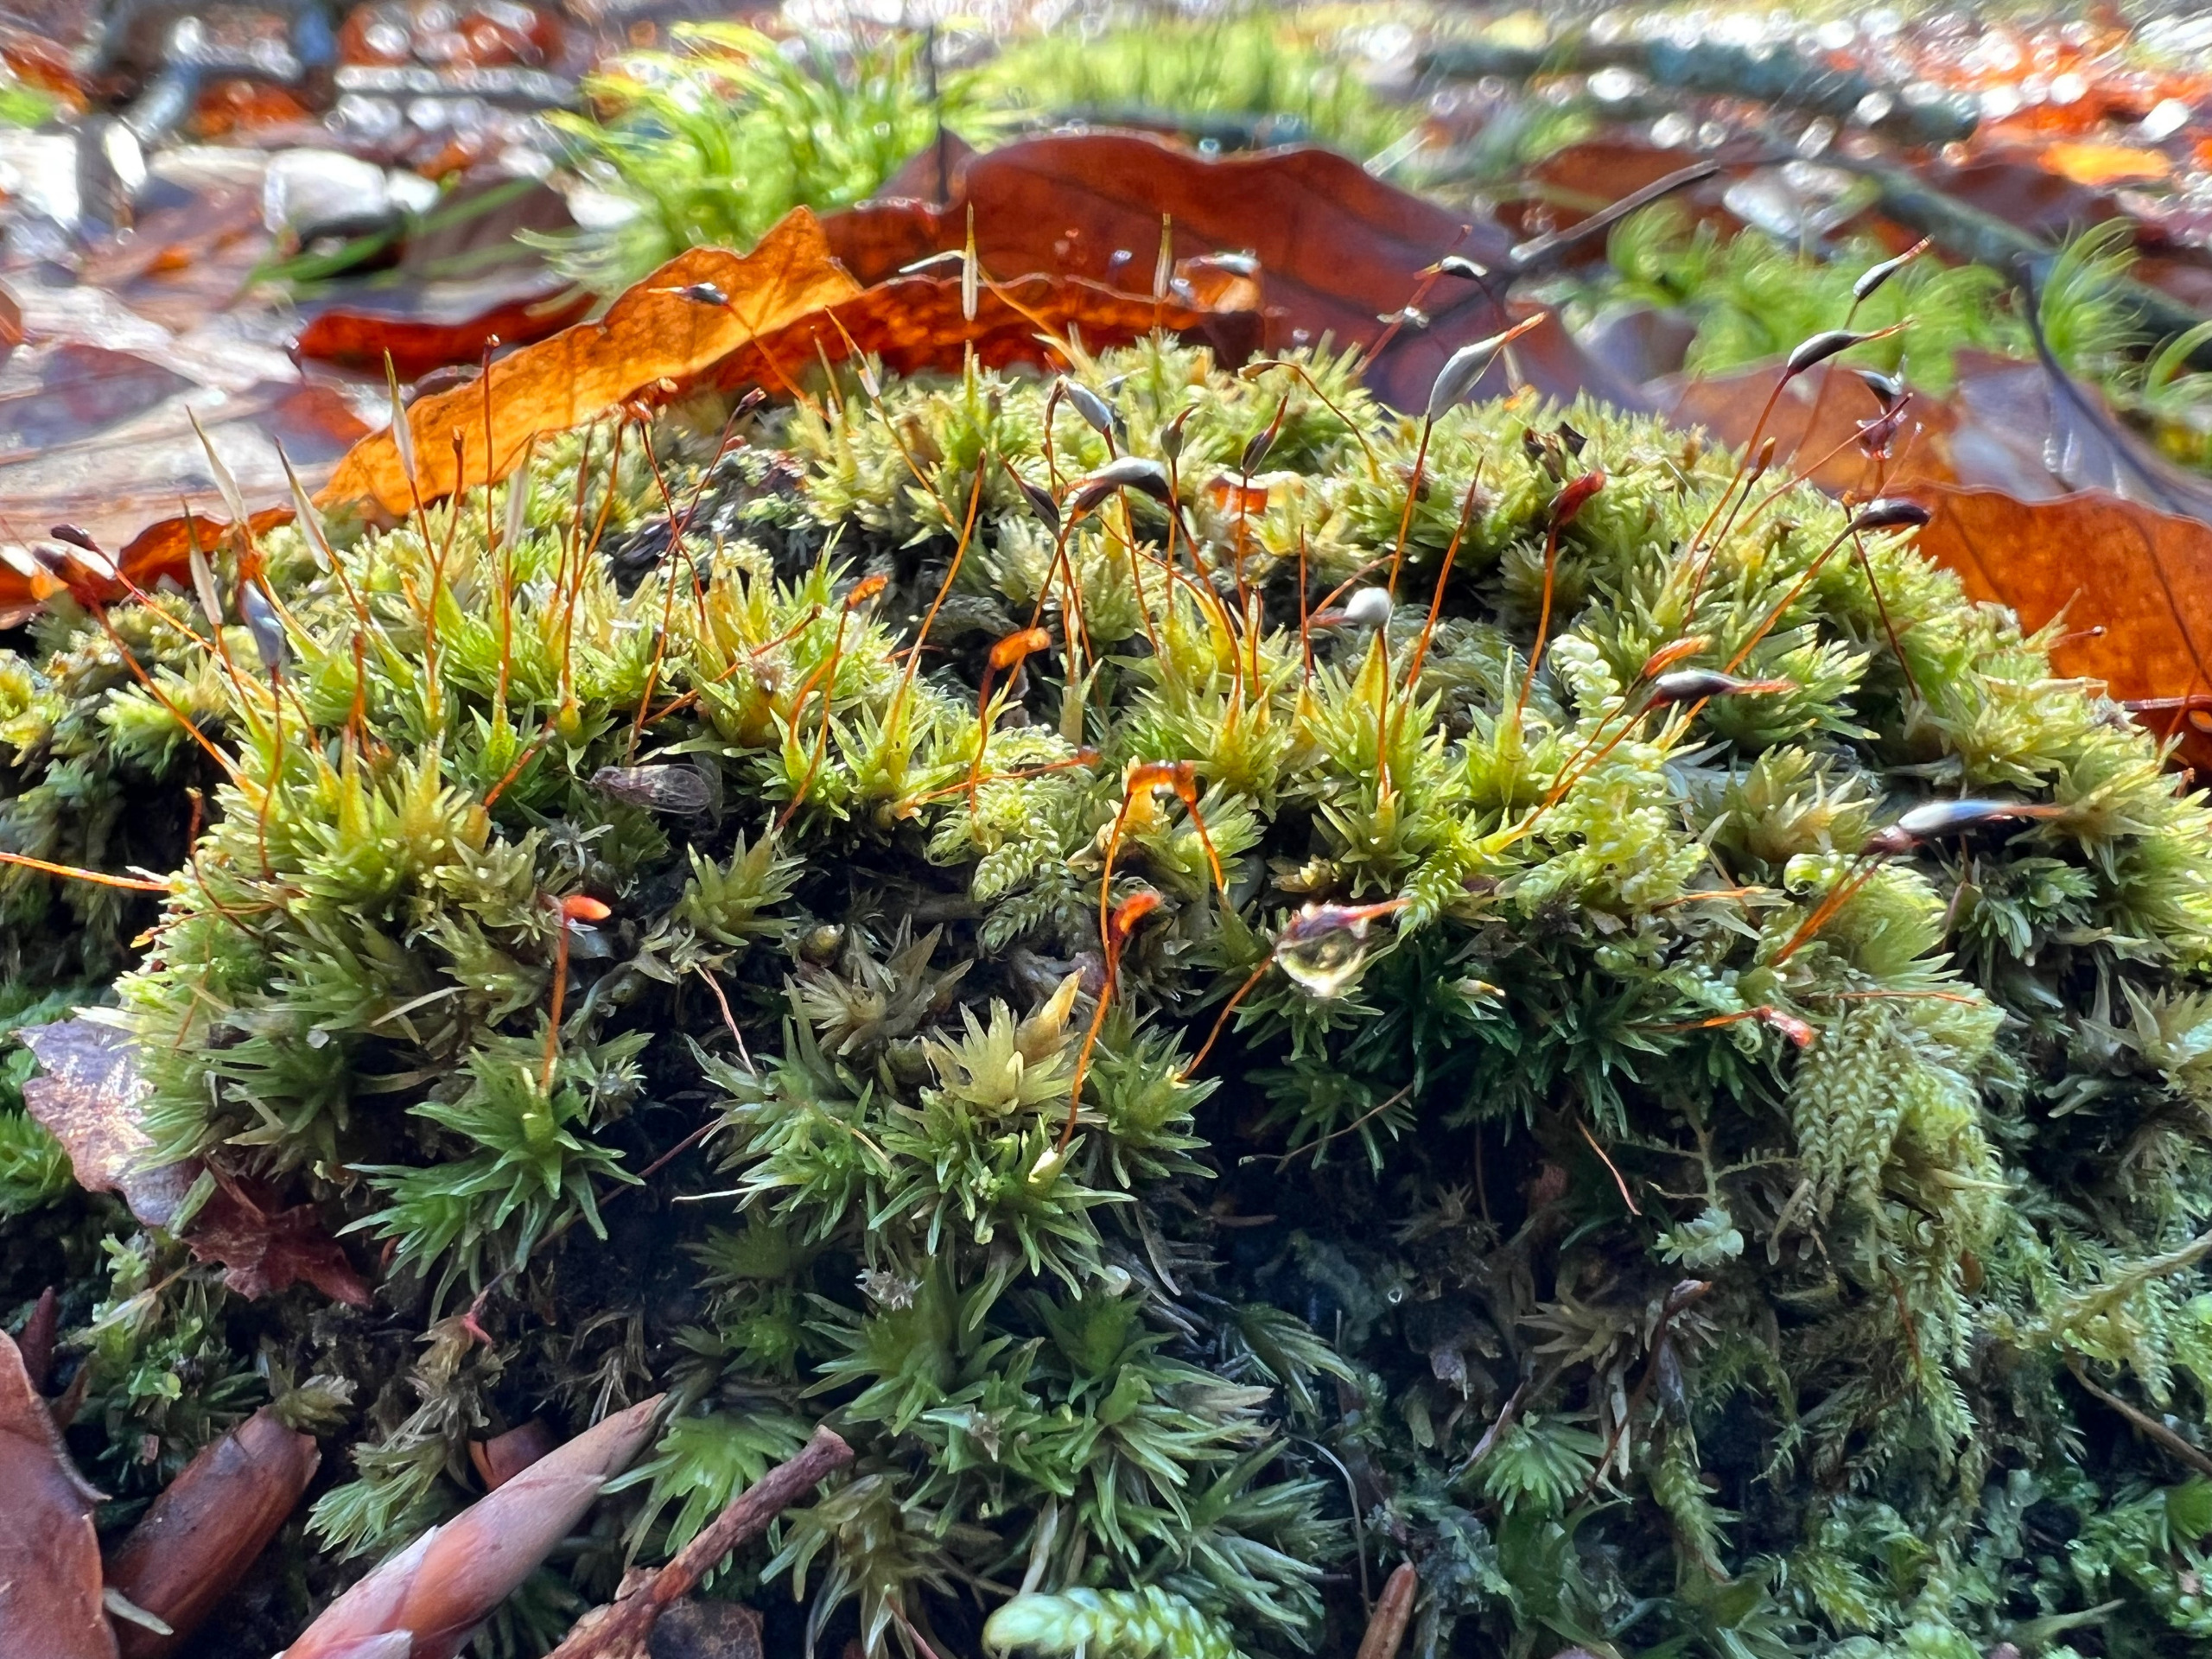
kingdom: Plantae
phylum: Bryophyta
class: Bryopsida
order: Dicranales
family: Leucobryaceae
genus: Leucobryum
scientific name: Leucobryum glaucum
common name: Almindelig hvidmos
